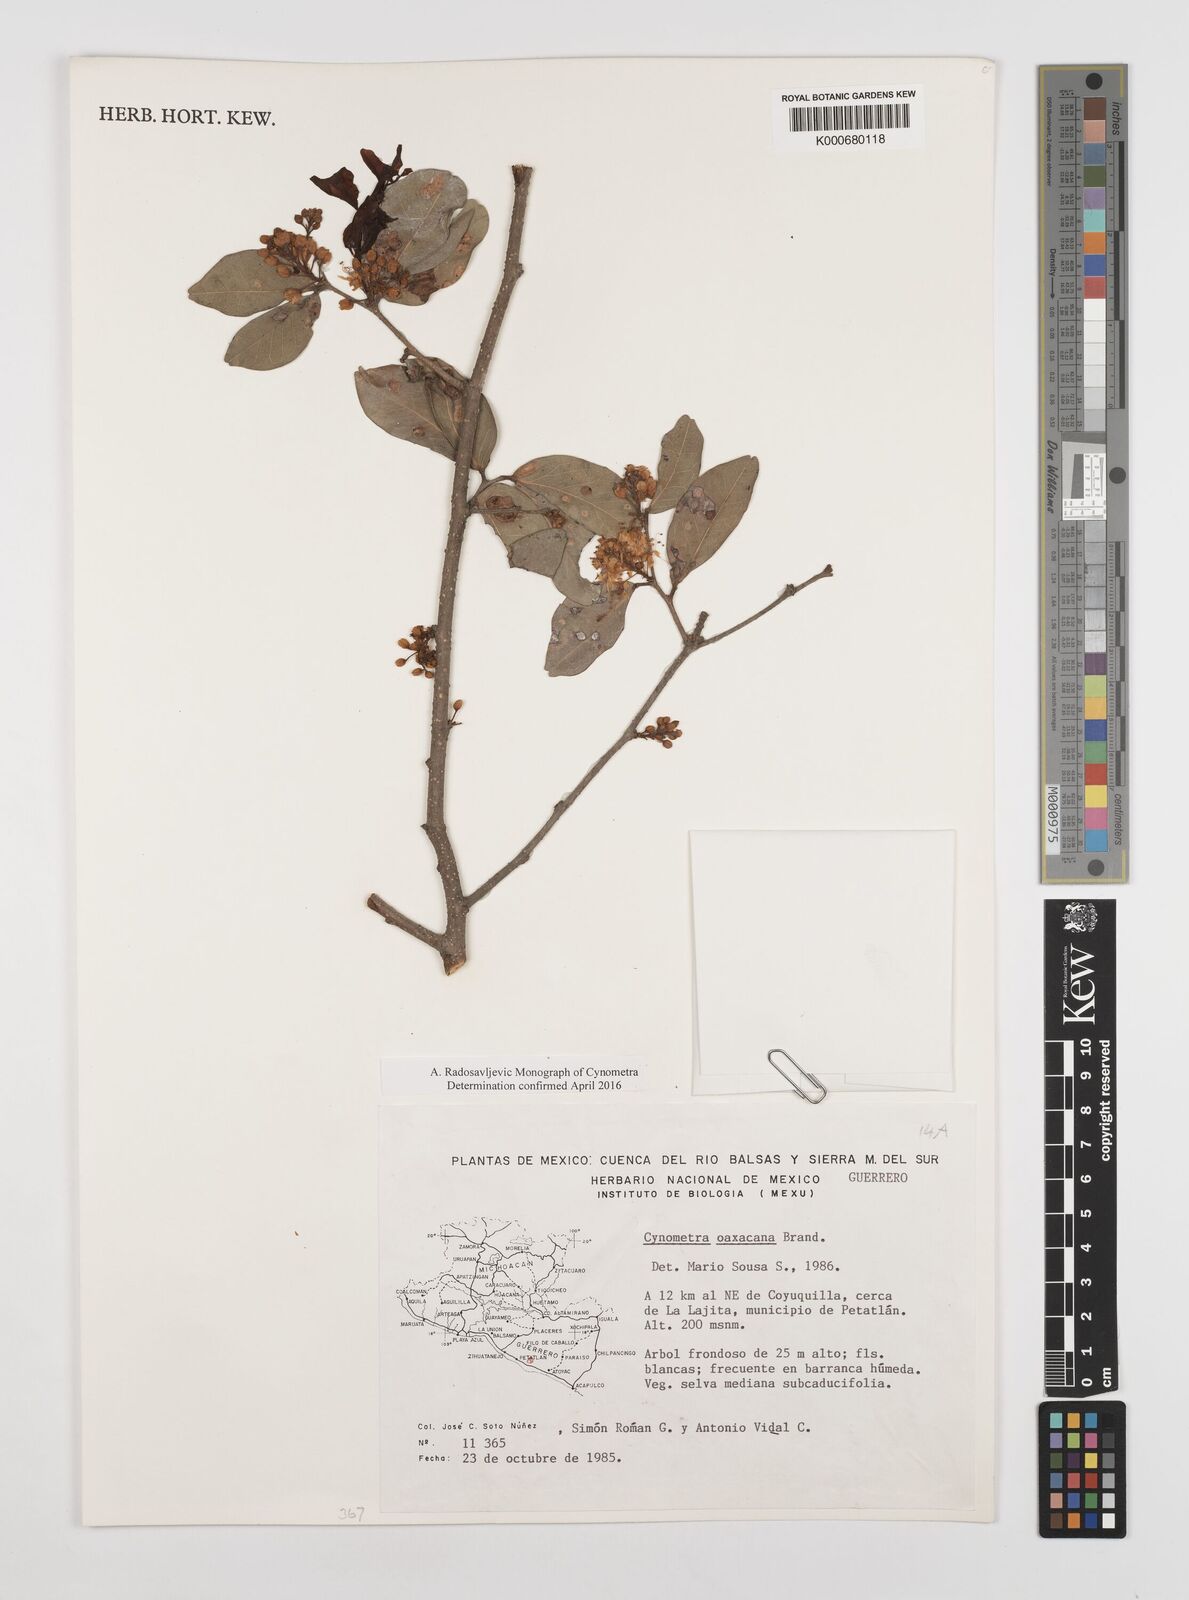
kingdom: Plantae
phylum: Tracheophyta
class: Magnoliopsida
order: Fabales
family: Fabaceae
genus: Cynometra
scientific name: Cynometra oaxacana
